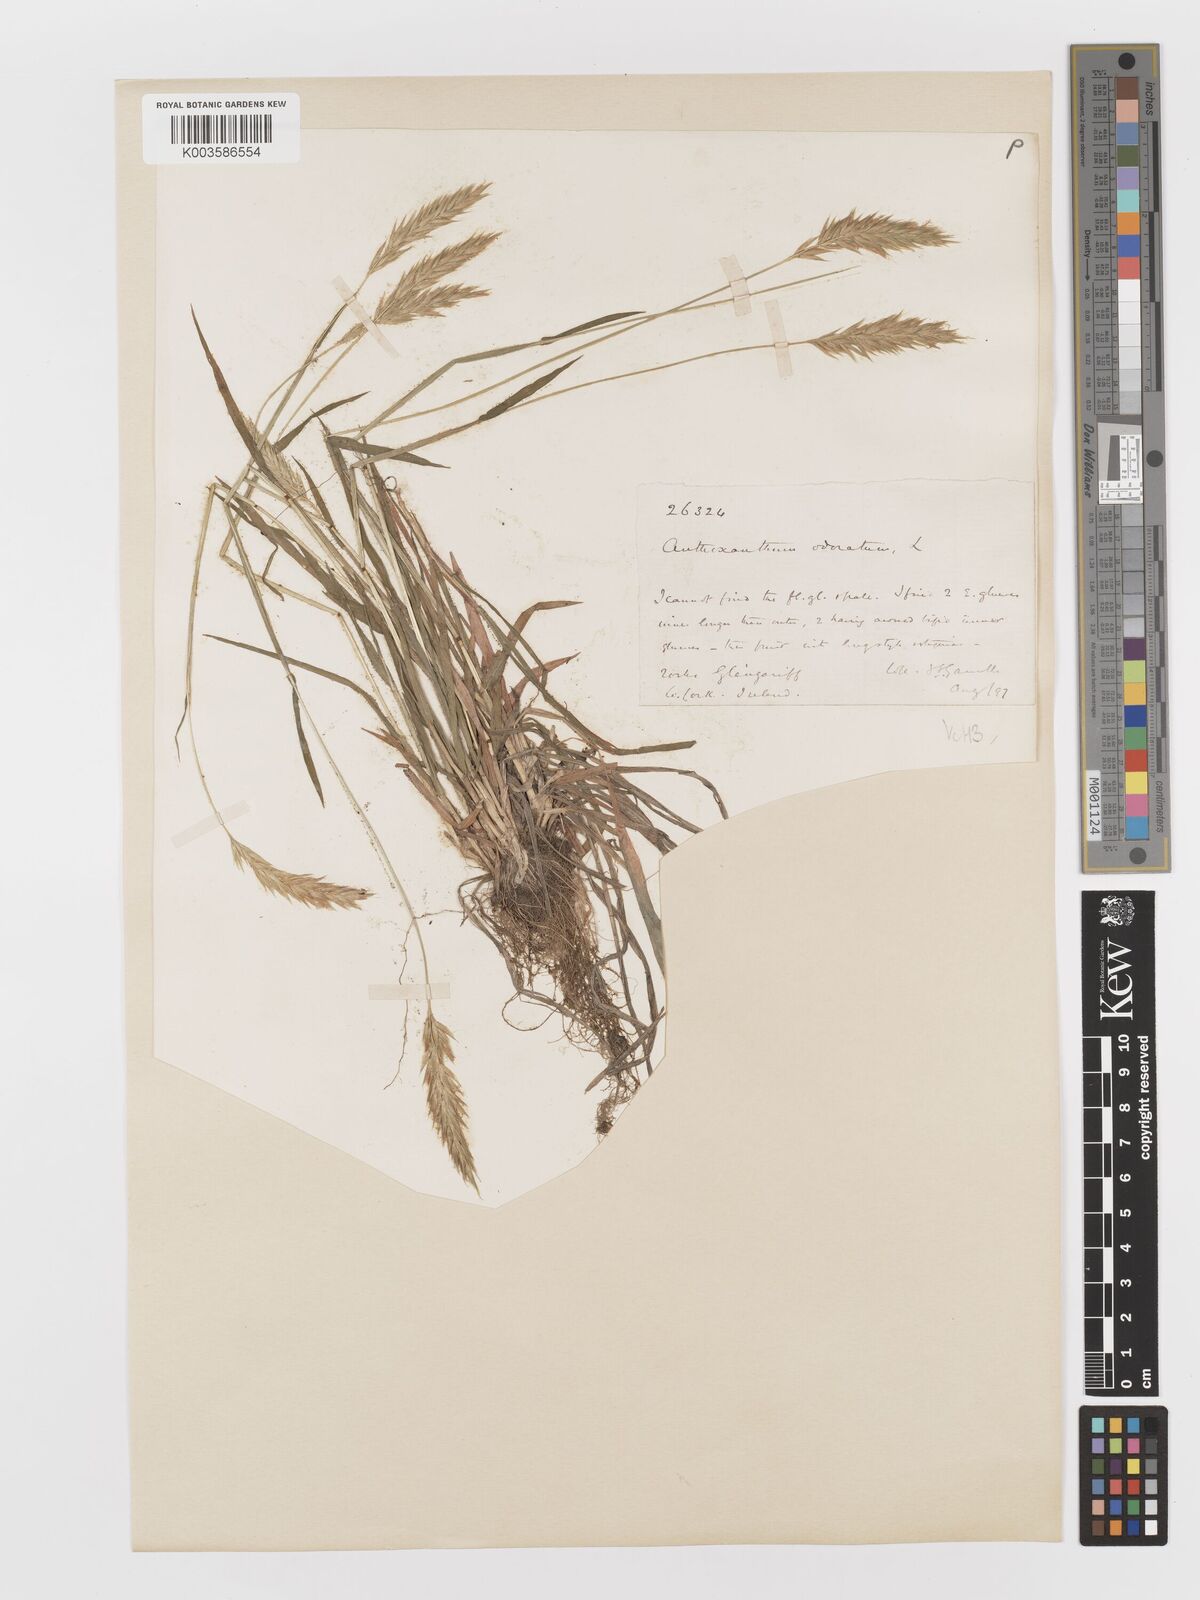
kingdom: Plantae
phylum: Tracheophyta
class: Liliopsida
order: Poales
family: Poaceae
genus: Anthoxanthum
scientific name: Anthoxanthum odoratum
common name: Sweet vernalgrass
